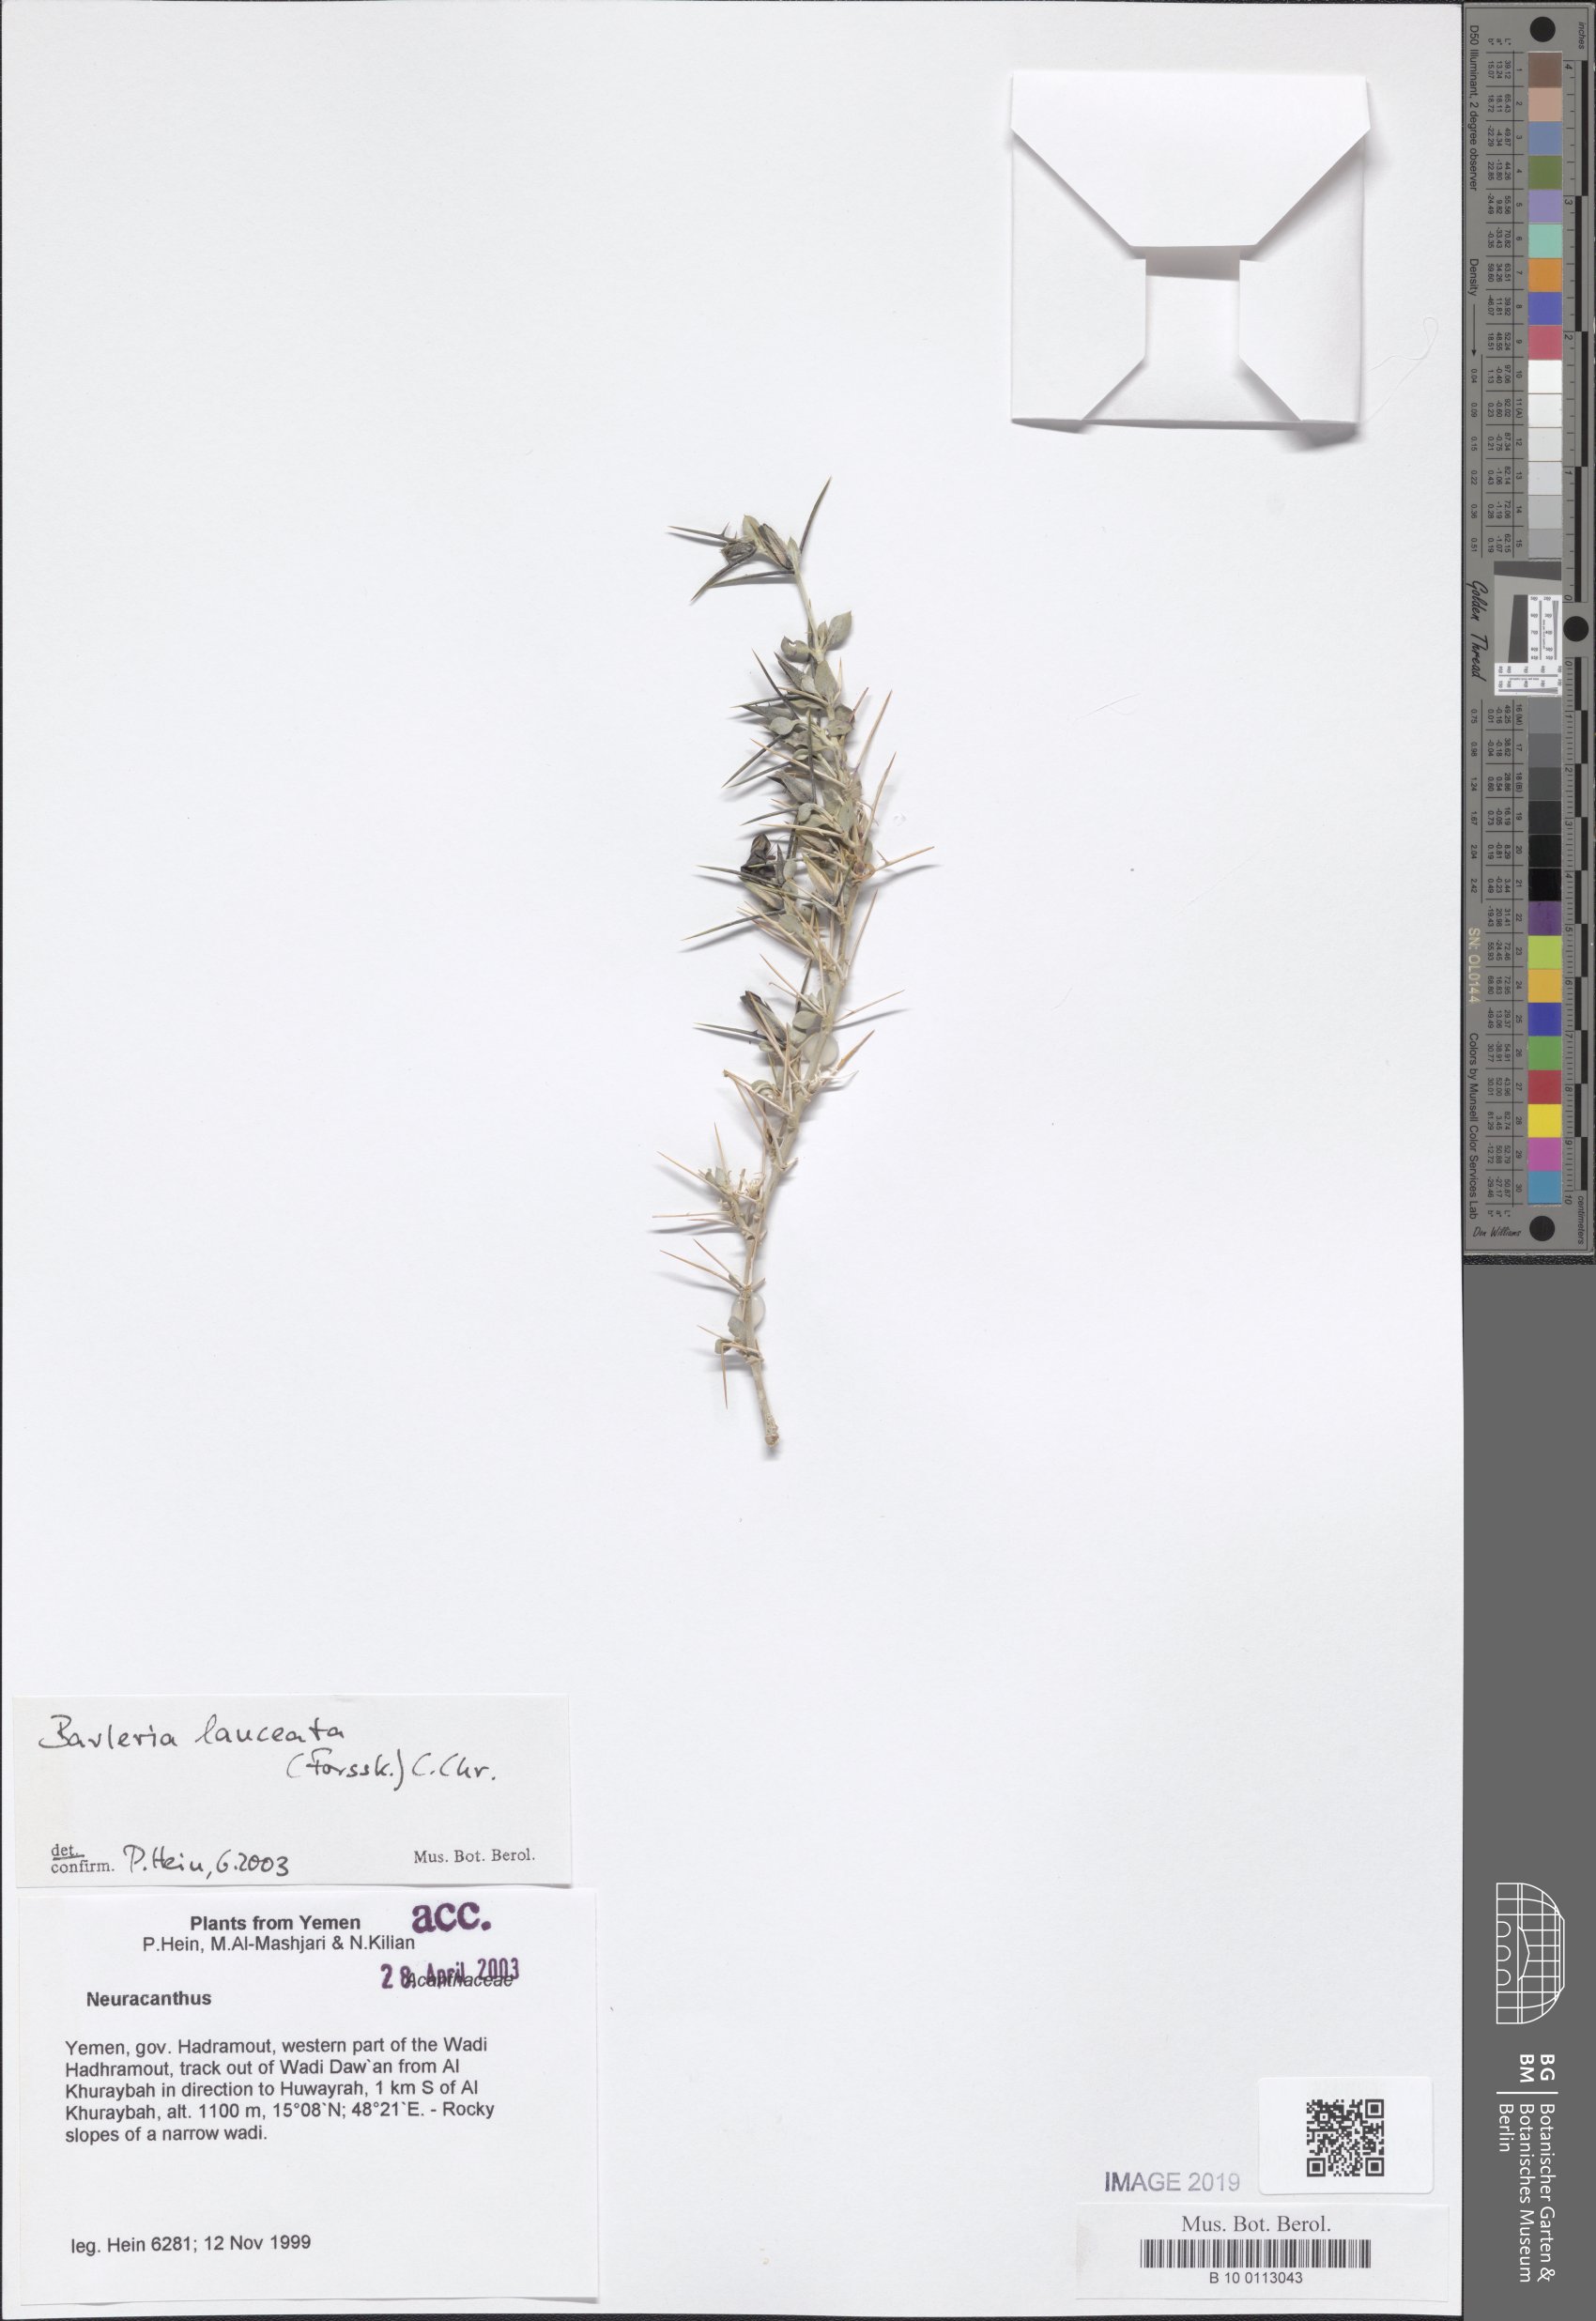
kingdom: Plantae
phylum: Tracheophyta
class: Magnoliopsida
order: Lamiales
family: Acanthaceae
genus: Barleria
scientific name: Barleria lanceata
